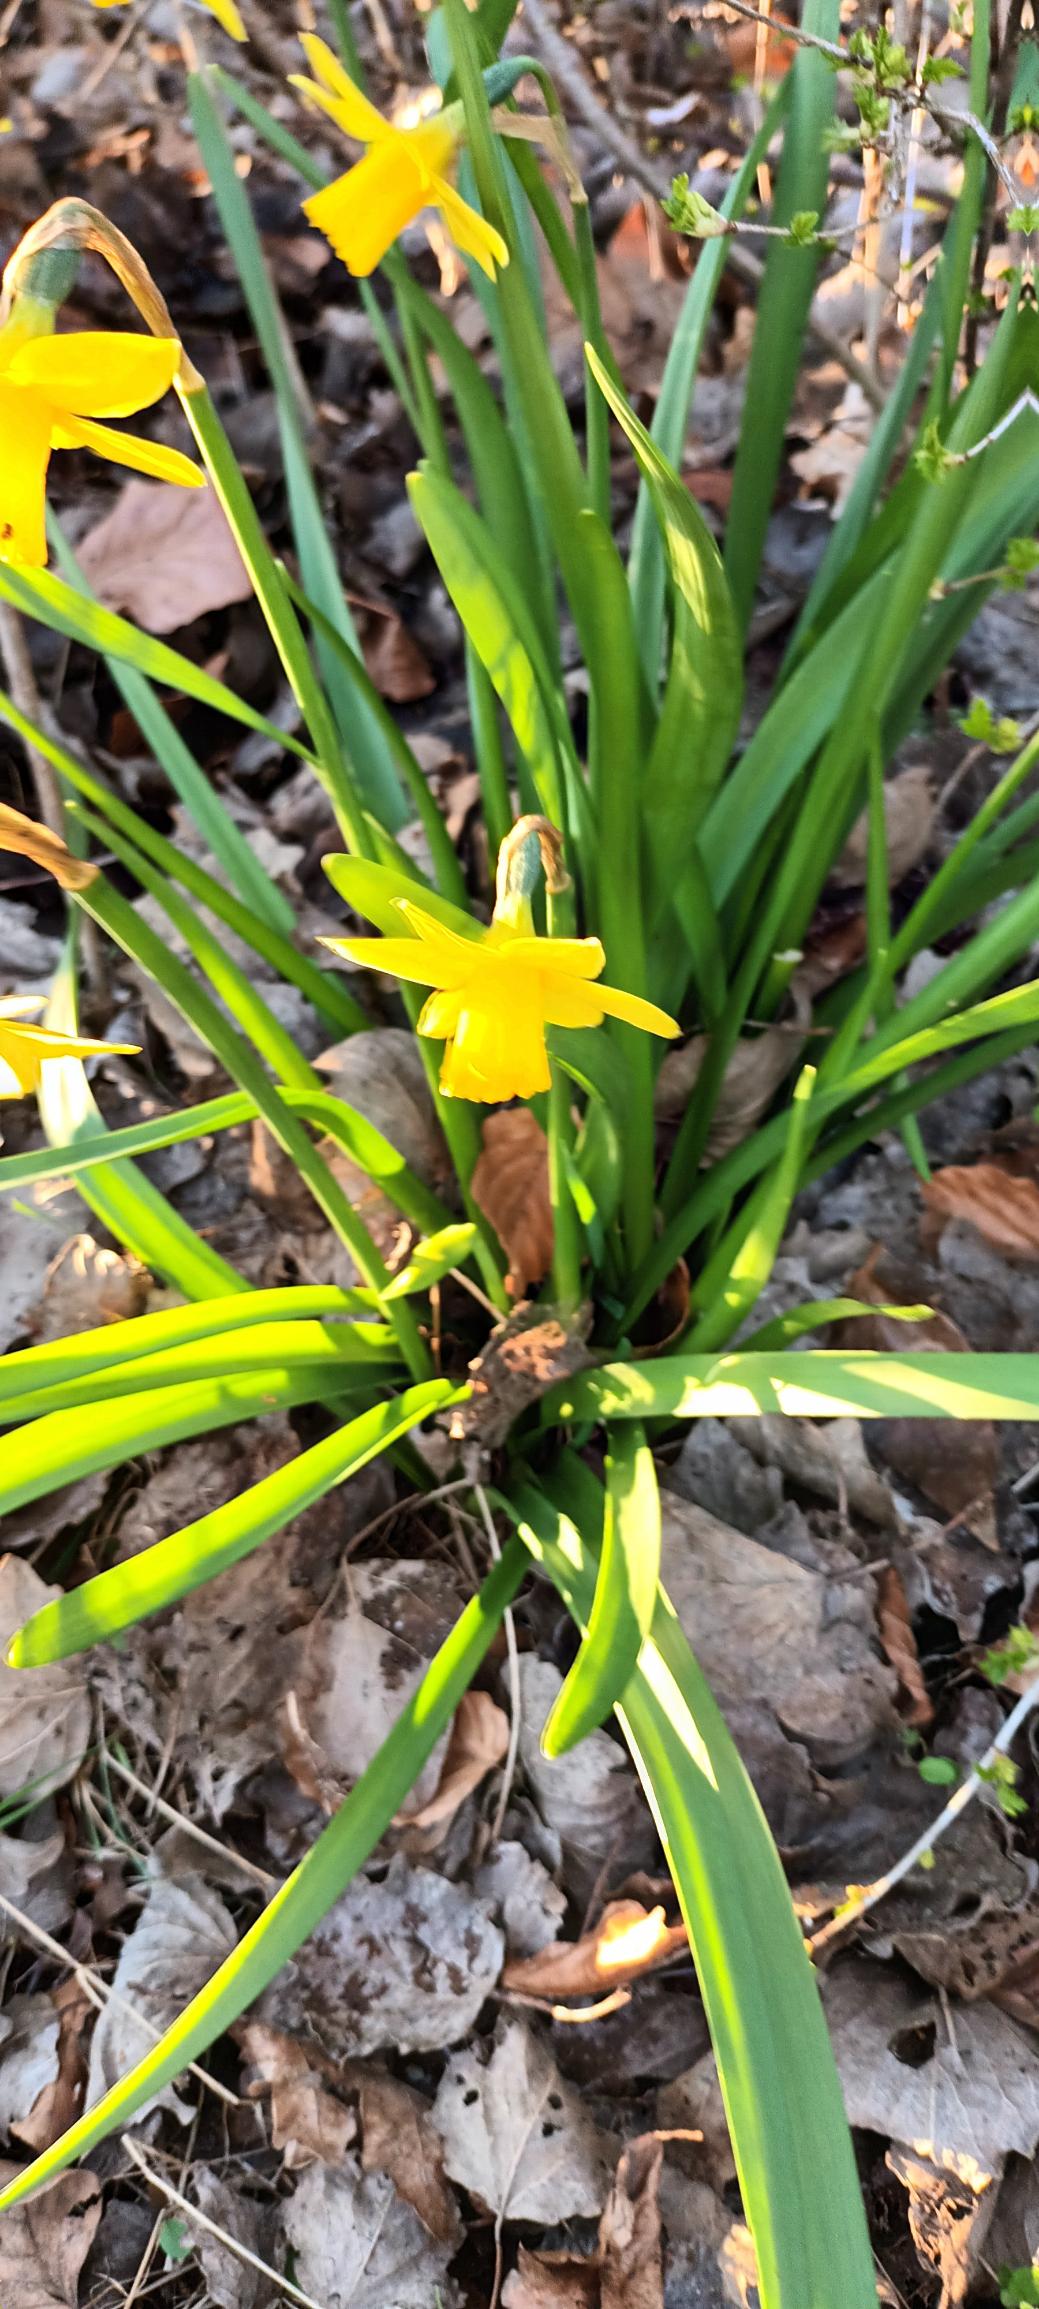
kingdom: Plantae
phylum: Tracheophyta
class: Liliopsida
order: Asparagales
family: Amaryllidaceae
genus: Narcissus
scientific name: Narcissus cyclazetta
